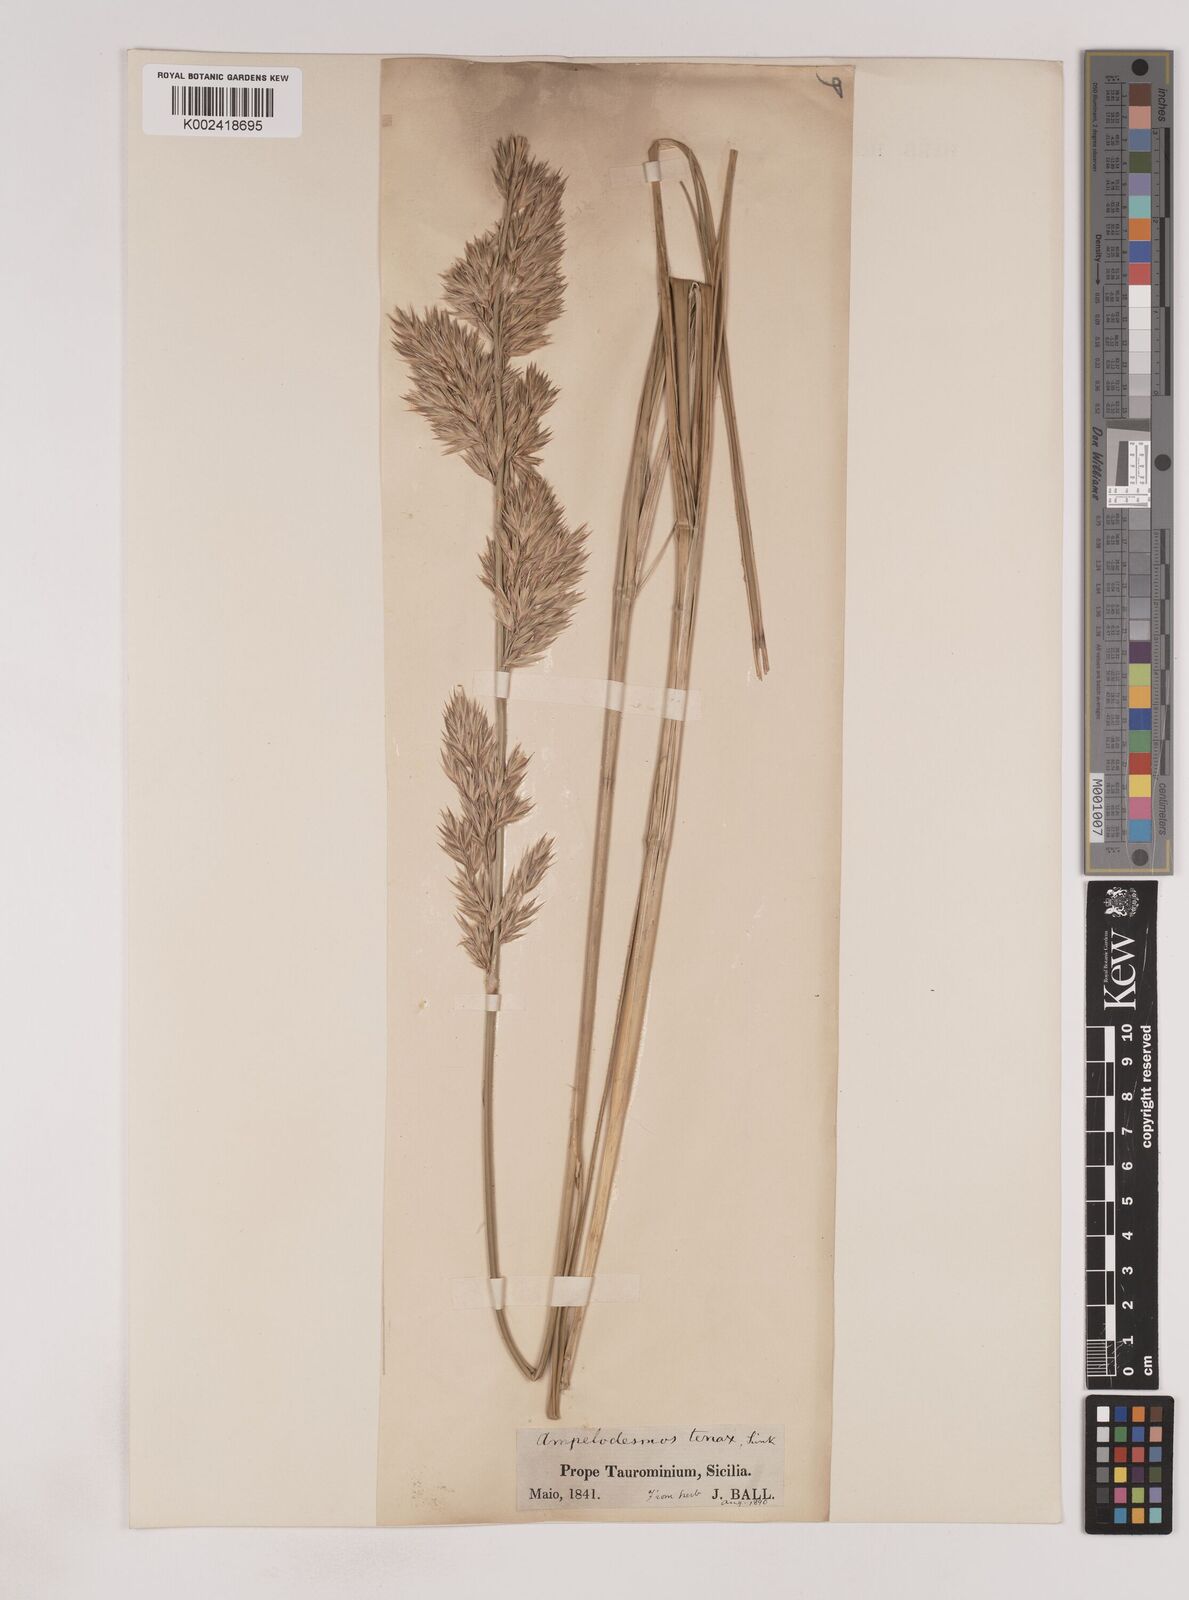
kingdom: Plantae
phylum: Tracheophyta
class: Liliopsida
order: Poales
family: Poaceae
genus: Ampelodesmos
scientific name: Ampelodesmos mauritanicus
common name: Mauritanian grass
